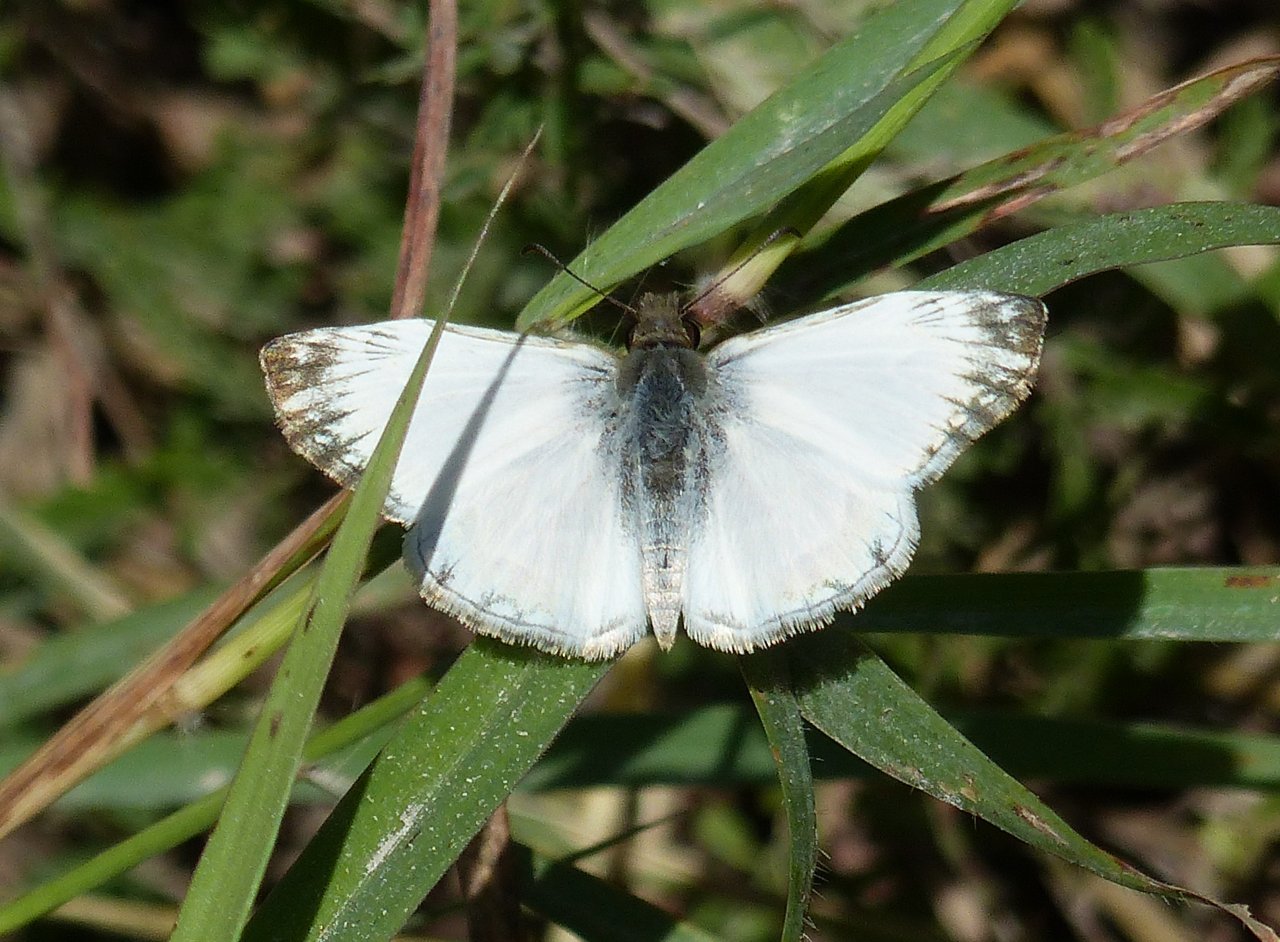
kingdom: Animalia
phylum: Arthropoda
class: Insecta
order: Lepidoptera
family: Hesperiidae
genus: Heliopetes
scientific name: Heliopetes macaira
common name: Turk's-cap White-Skipper
